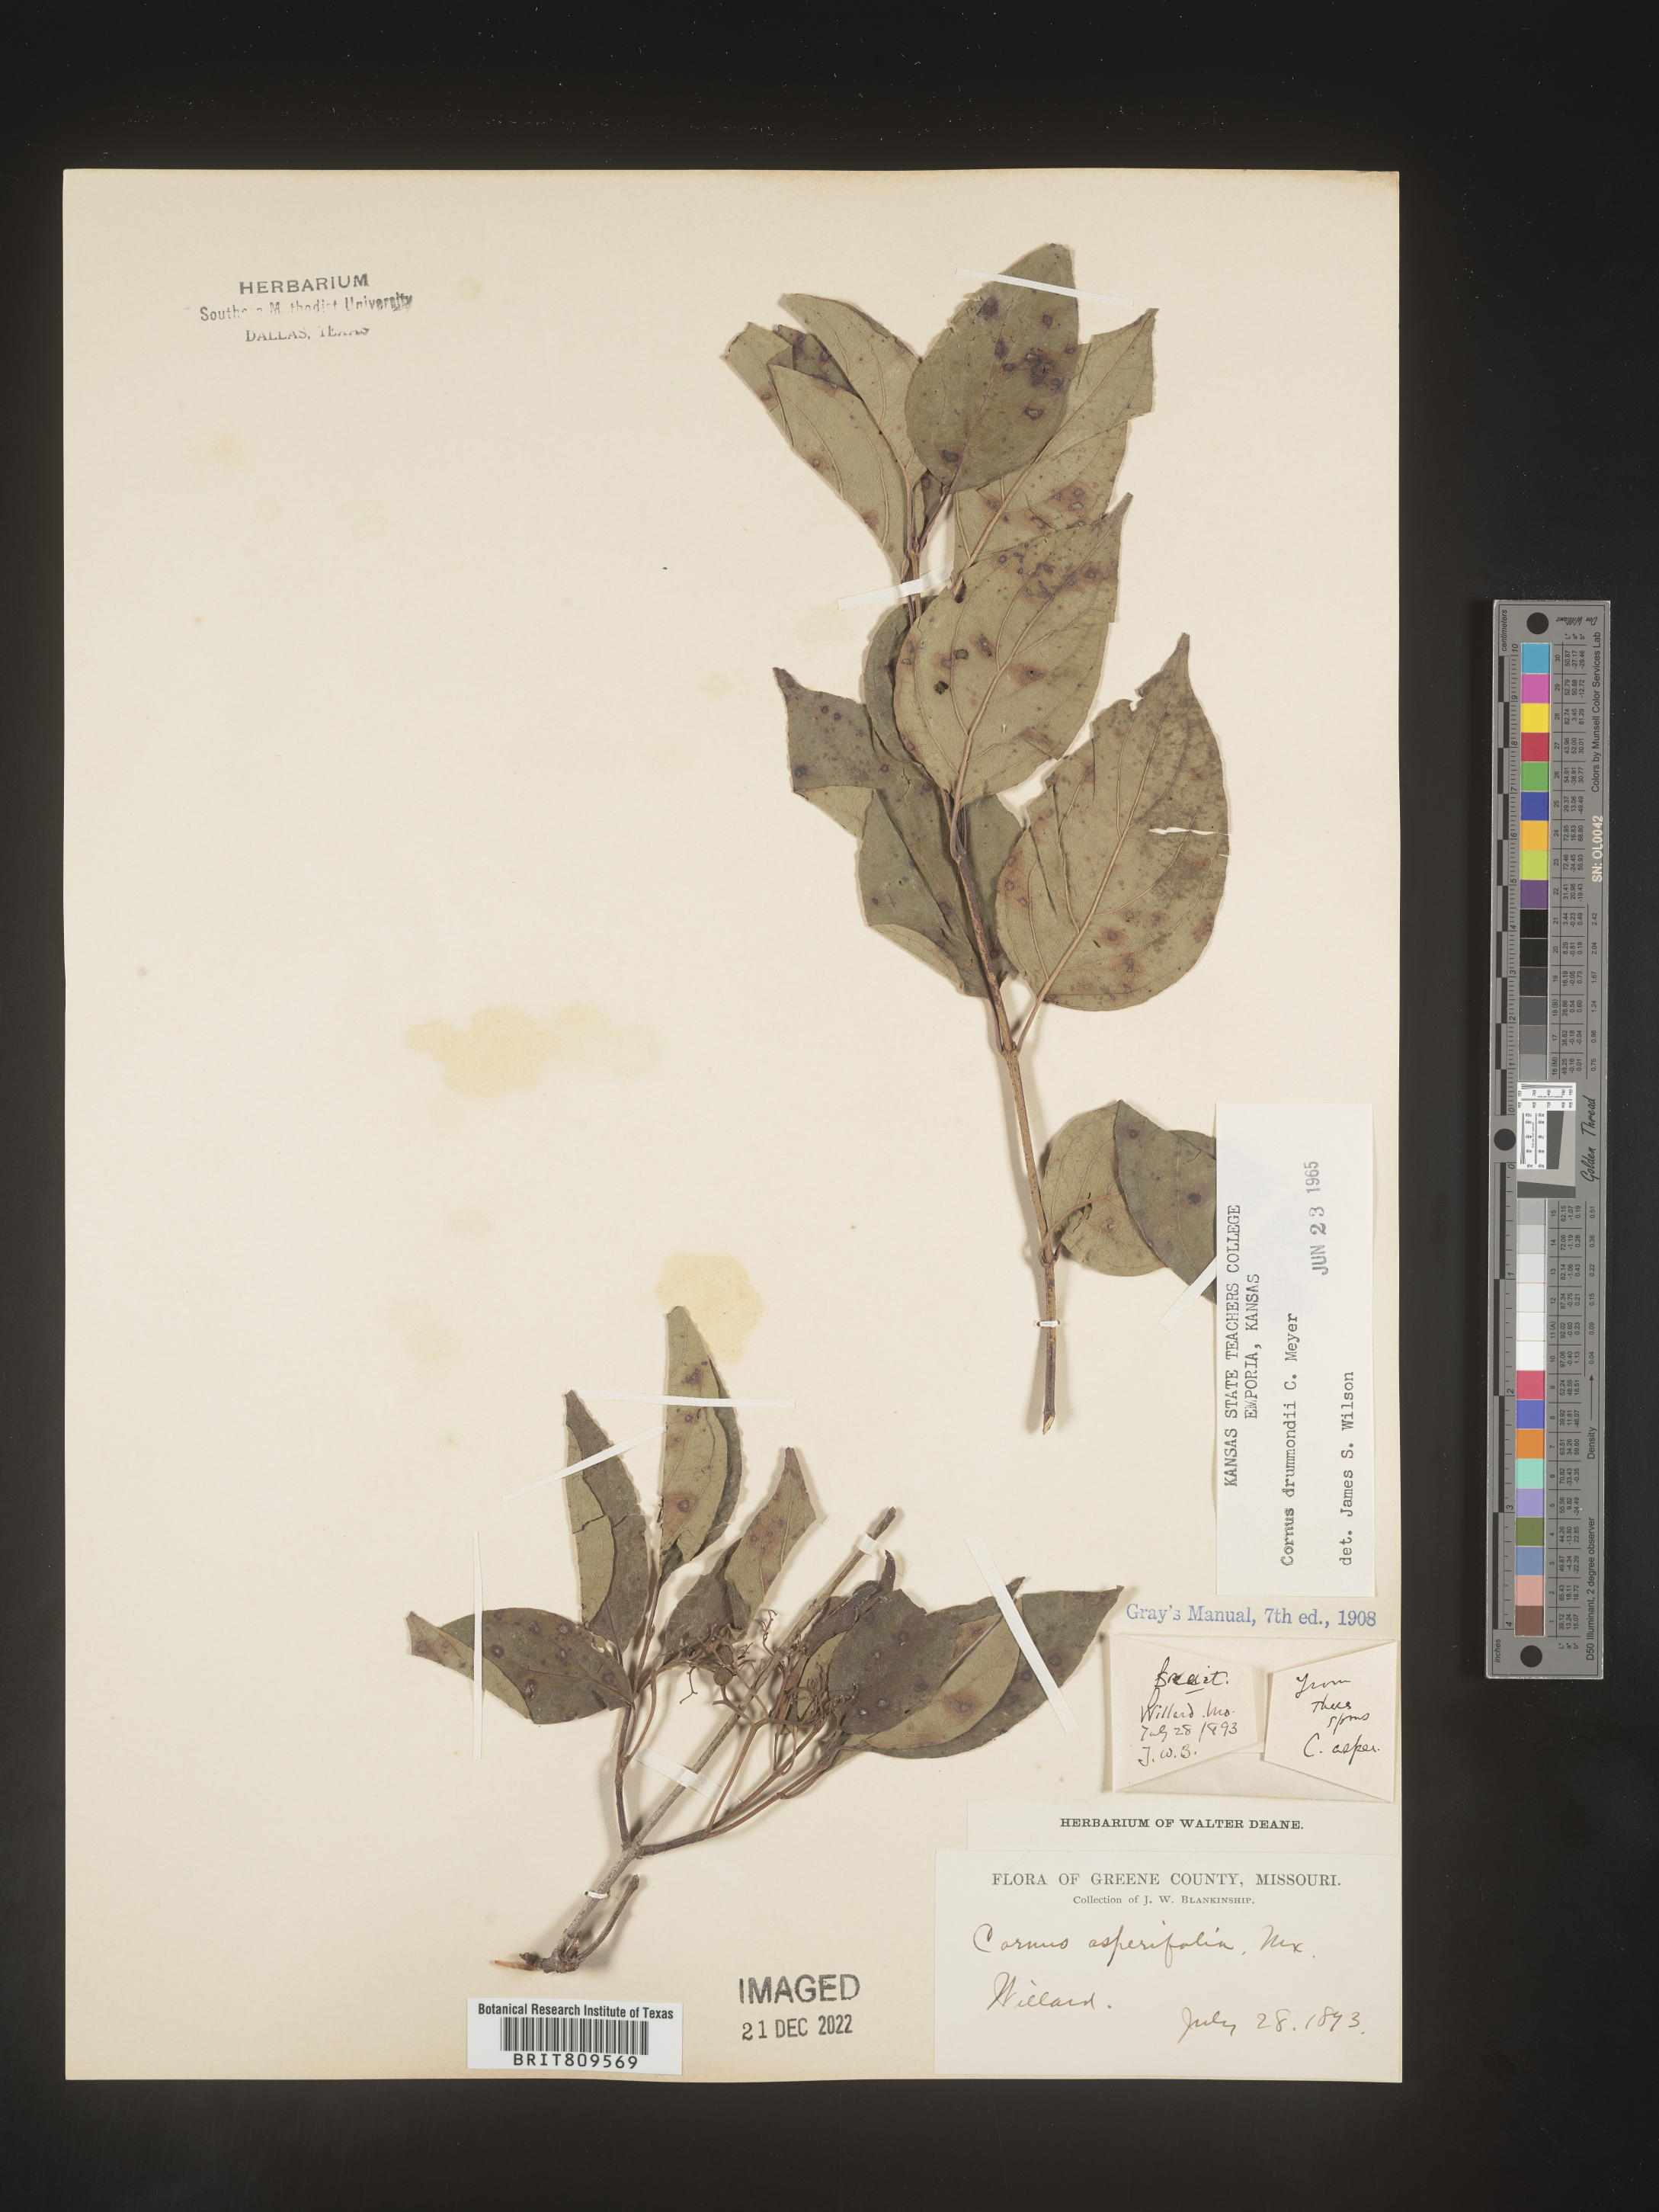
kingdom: Plantae
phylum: Tracheophyta
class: Magnoliopsida
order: Cornales
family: Cornaceae
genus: Cornus
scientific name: Cornus drummondii
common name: Rough-leaf dogwood
